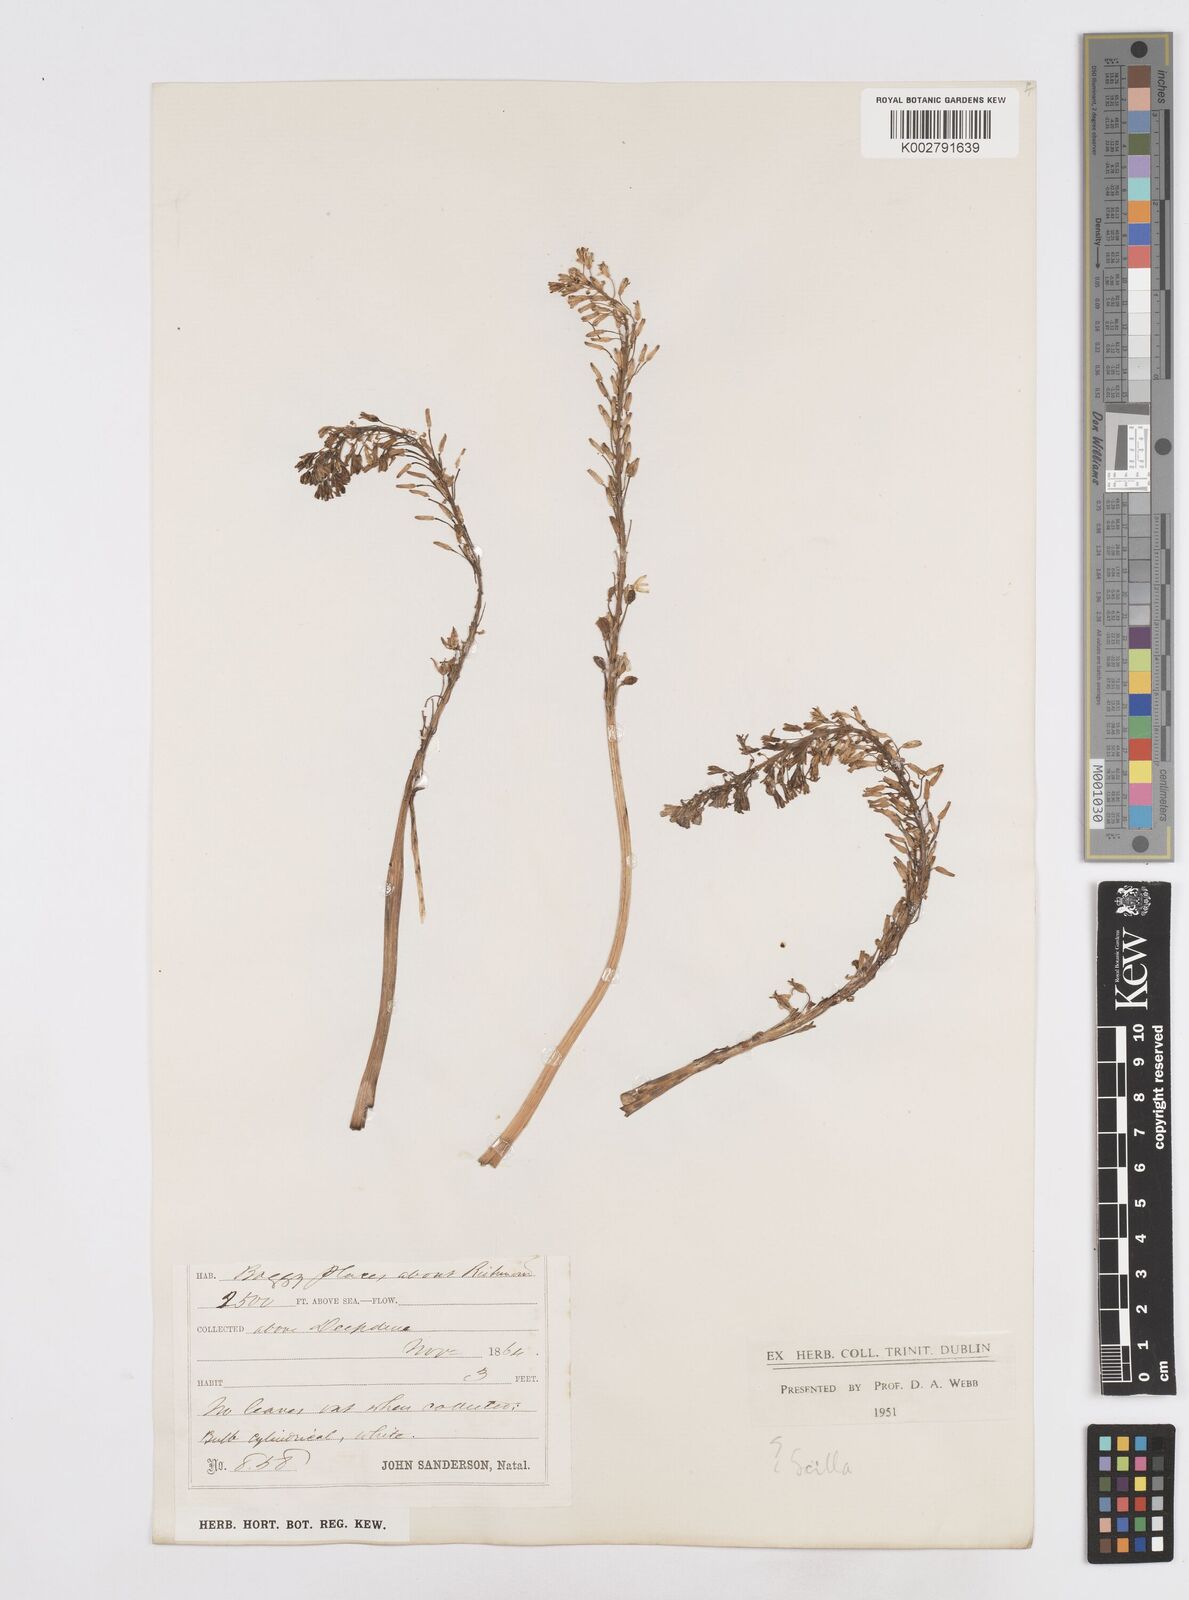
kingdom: Plantae
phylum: Tracheophyta
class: Liliopsida
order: Asparagales
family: Asparagaceae
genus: Scilla
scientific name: Scilla
